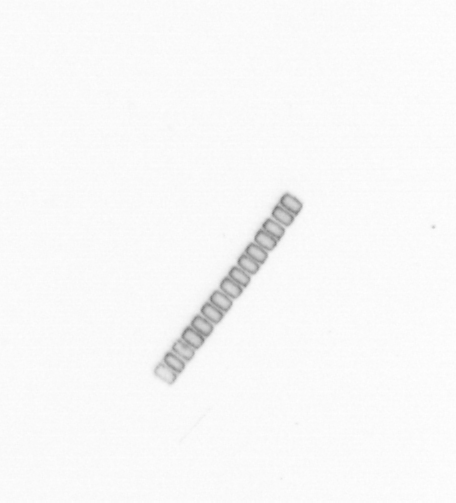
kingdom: Chromista
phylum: Ochrophyta
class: Bacillariophyceae
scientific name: Bacillariophyceae
